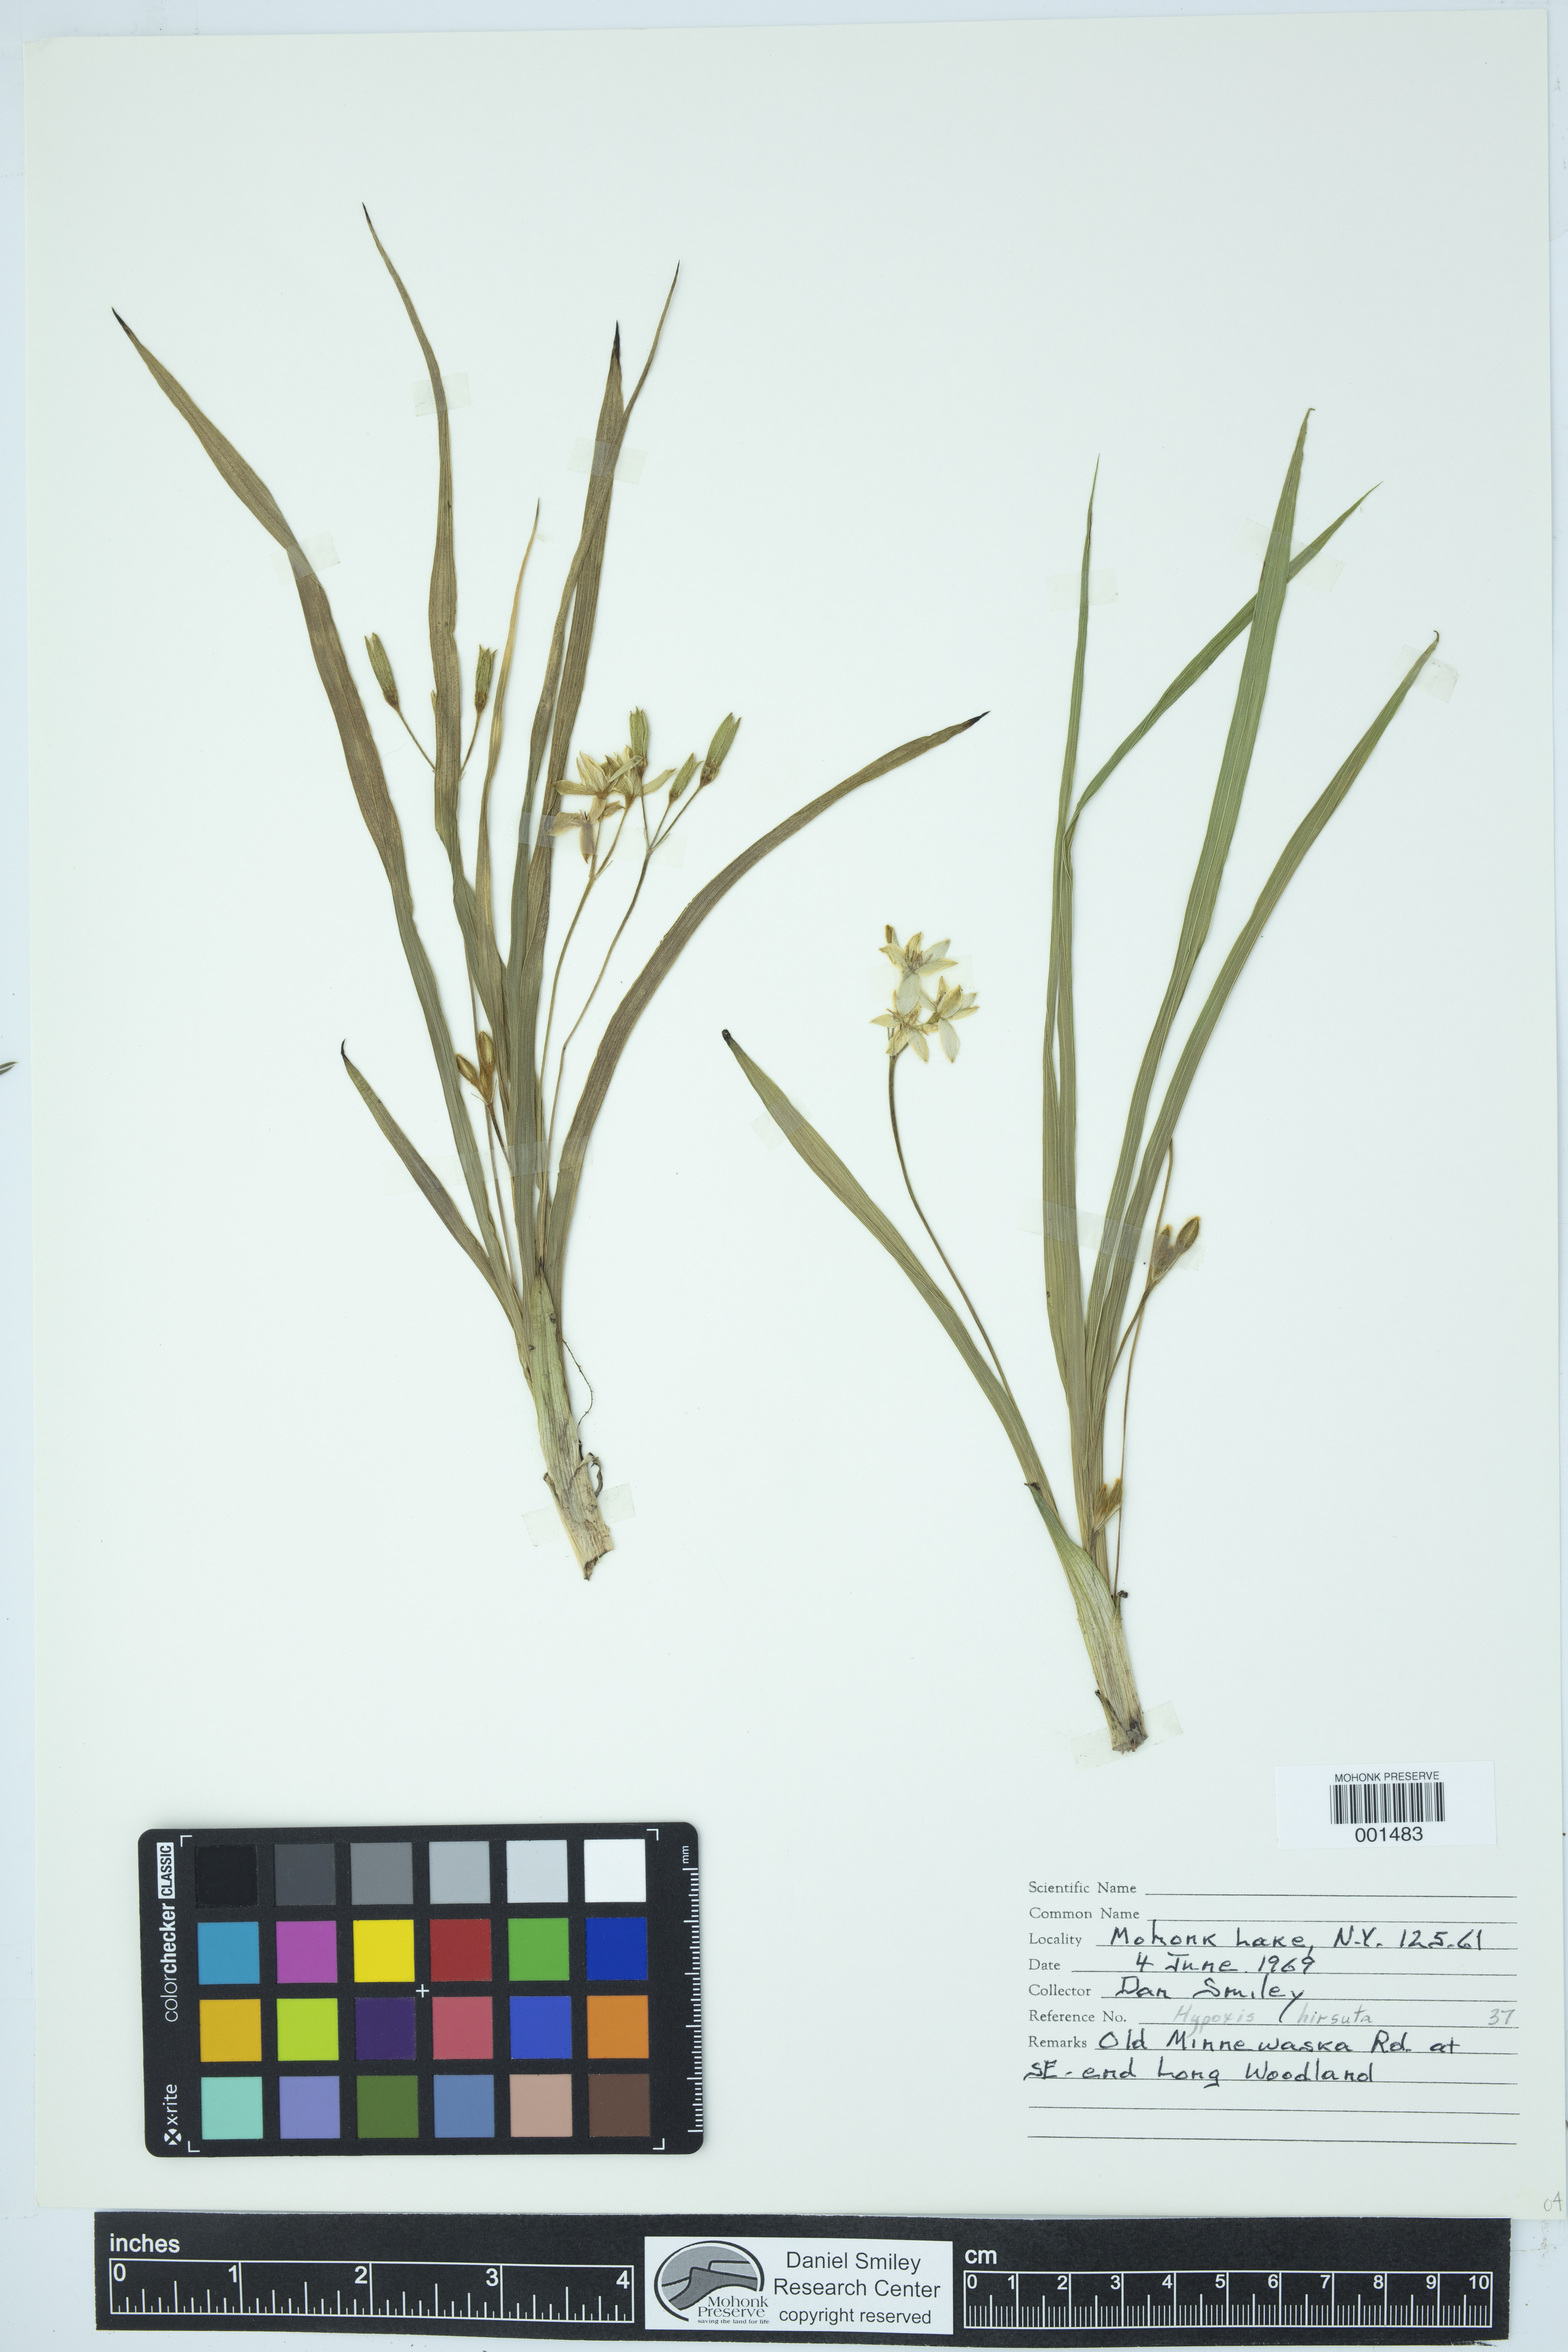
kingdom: Plantae
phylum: Tracheophyta
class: Liliopsida
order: Asparagales
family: Hypoxidaceae
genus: Hypoxis
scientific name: Hypoxis hirsuta
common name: Common goldstar
